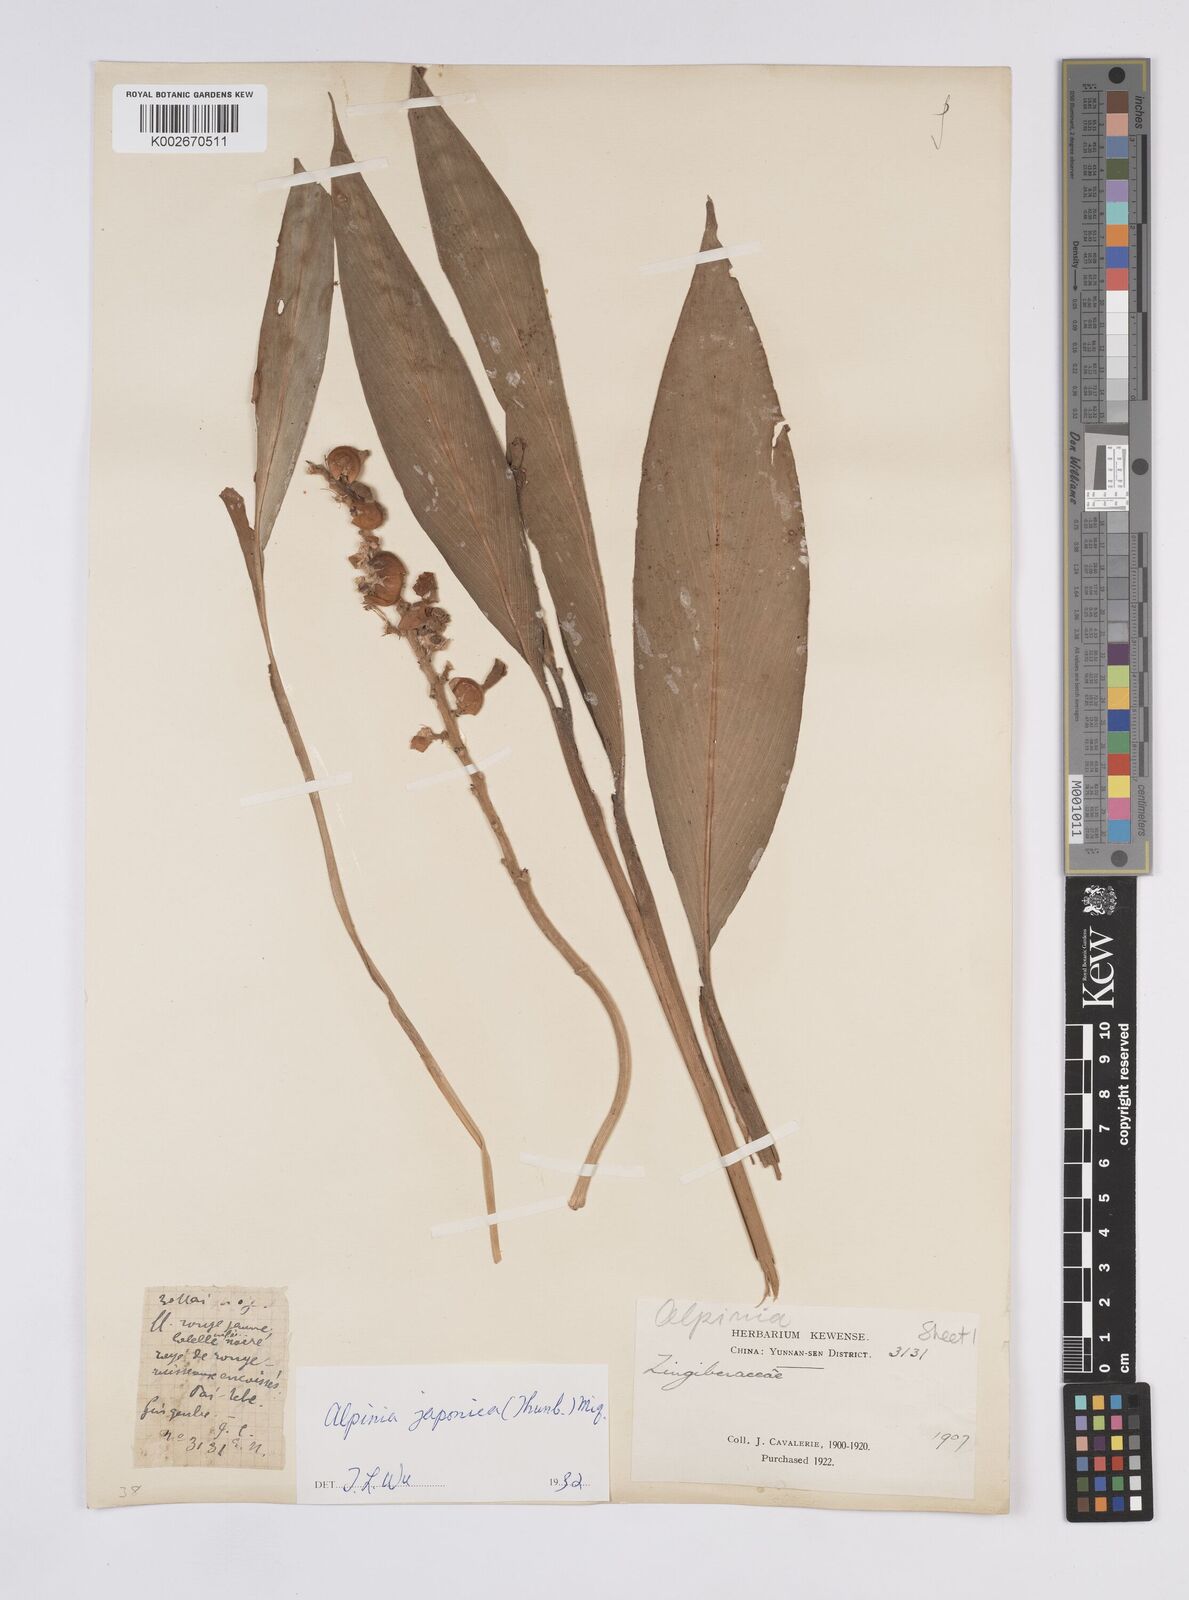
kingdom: Plantae
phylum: Tracheophyta
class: Liliopsida
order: Zingiberales
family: Zingiberaceae
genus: Alpinia
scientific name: Alpinia japonica
